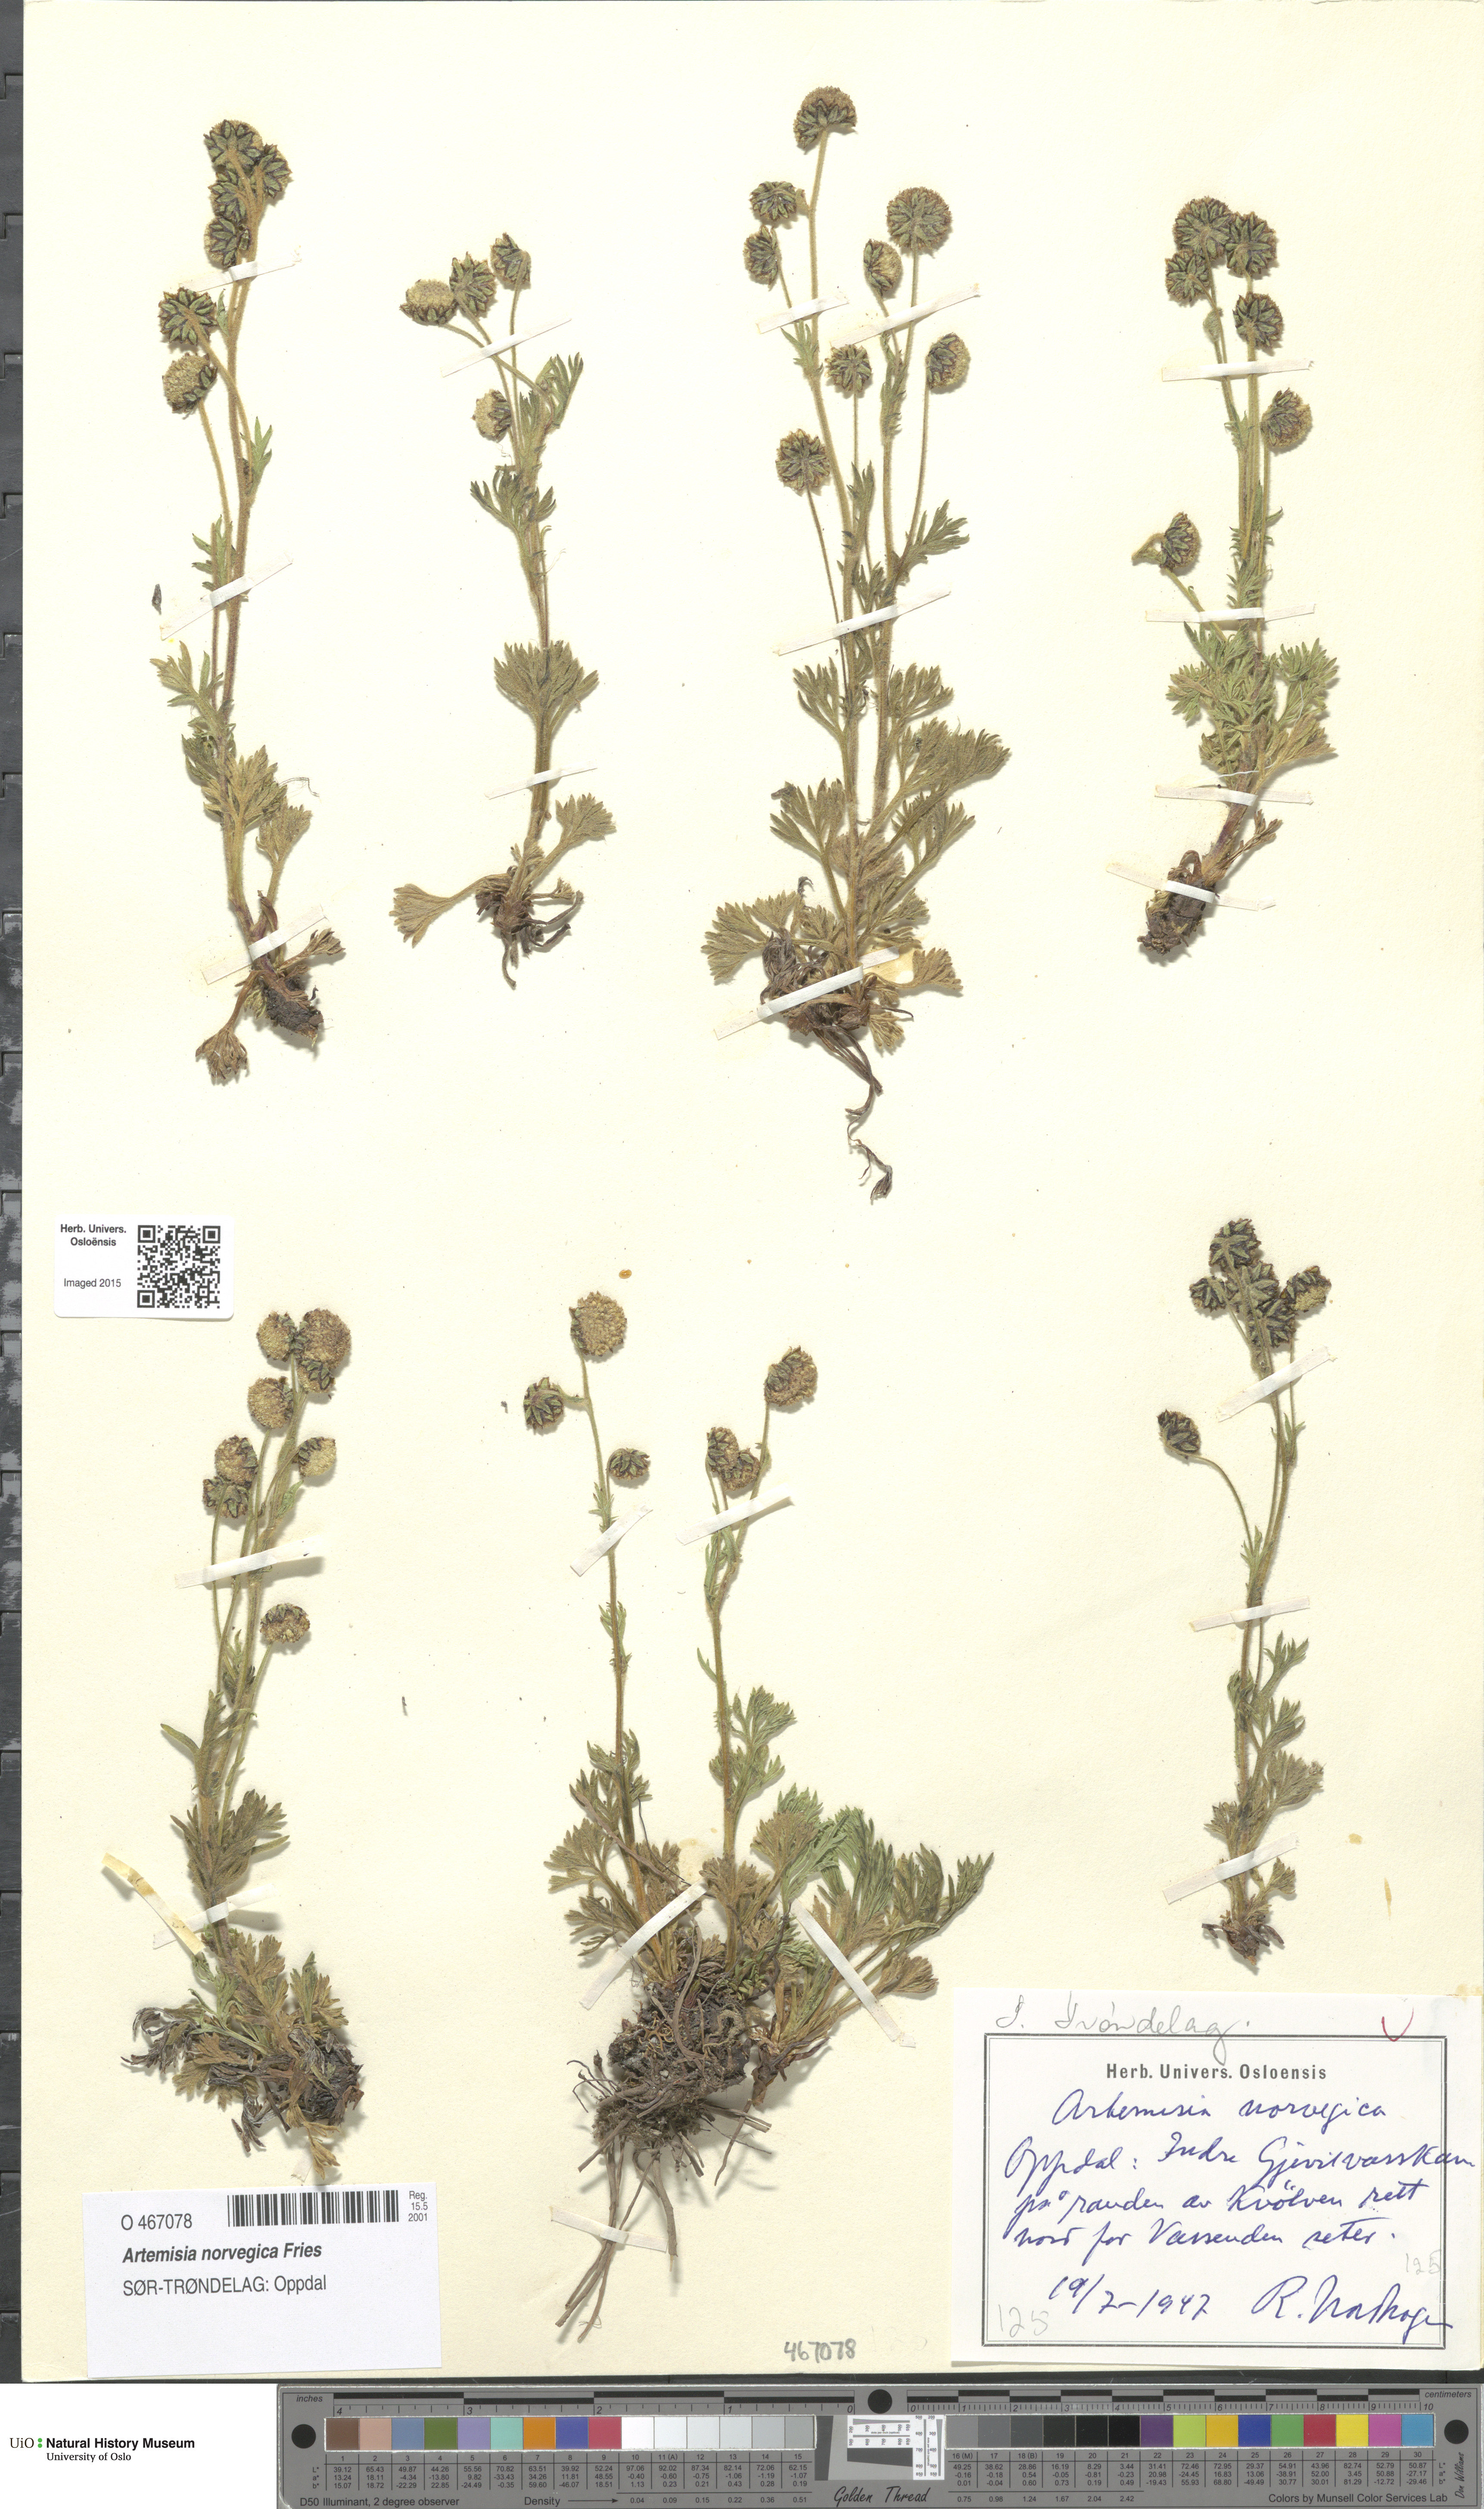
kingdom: Plantae
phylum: Tracheophyta
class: Magnoliopsida
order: Asterales
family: Asteraceae
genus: Artemisia
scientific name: Artemisia norvegica
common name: Norwegian mugwort
